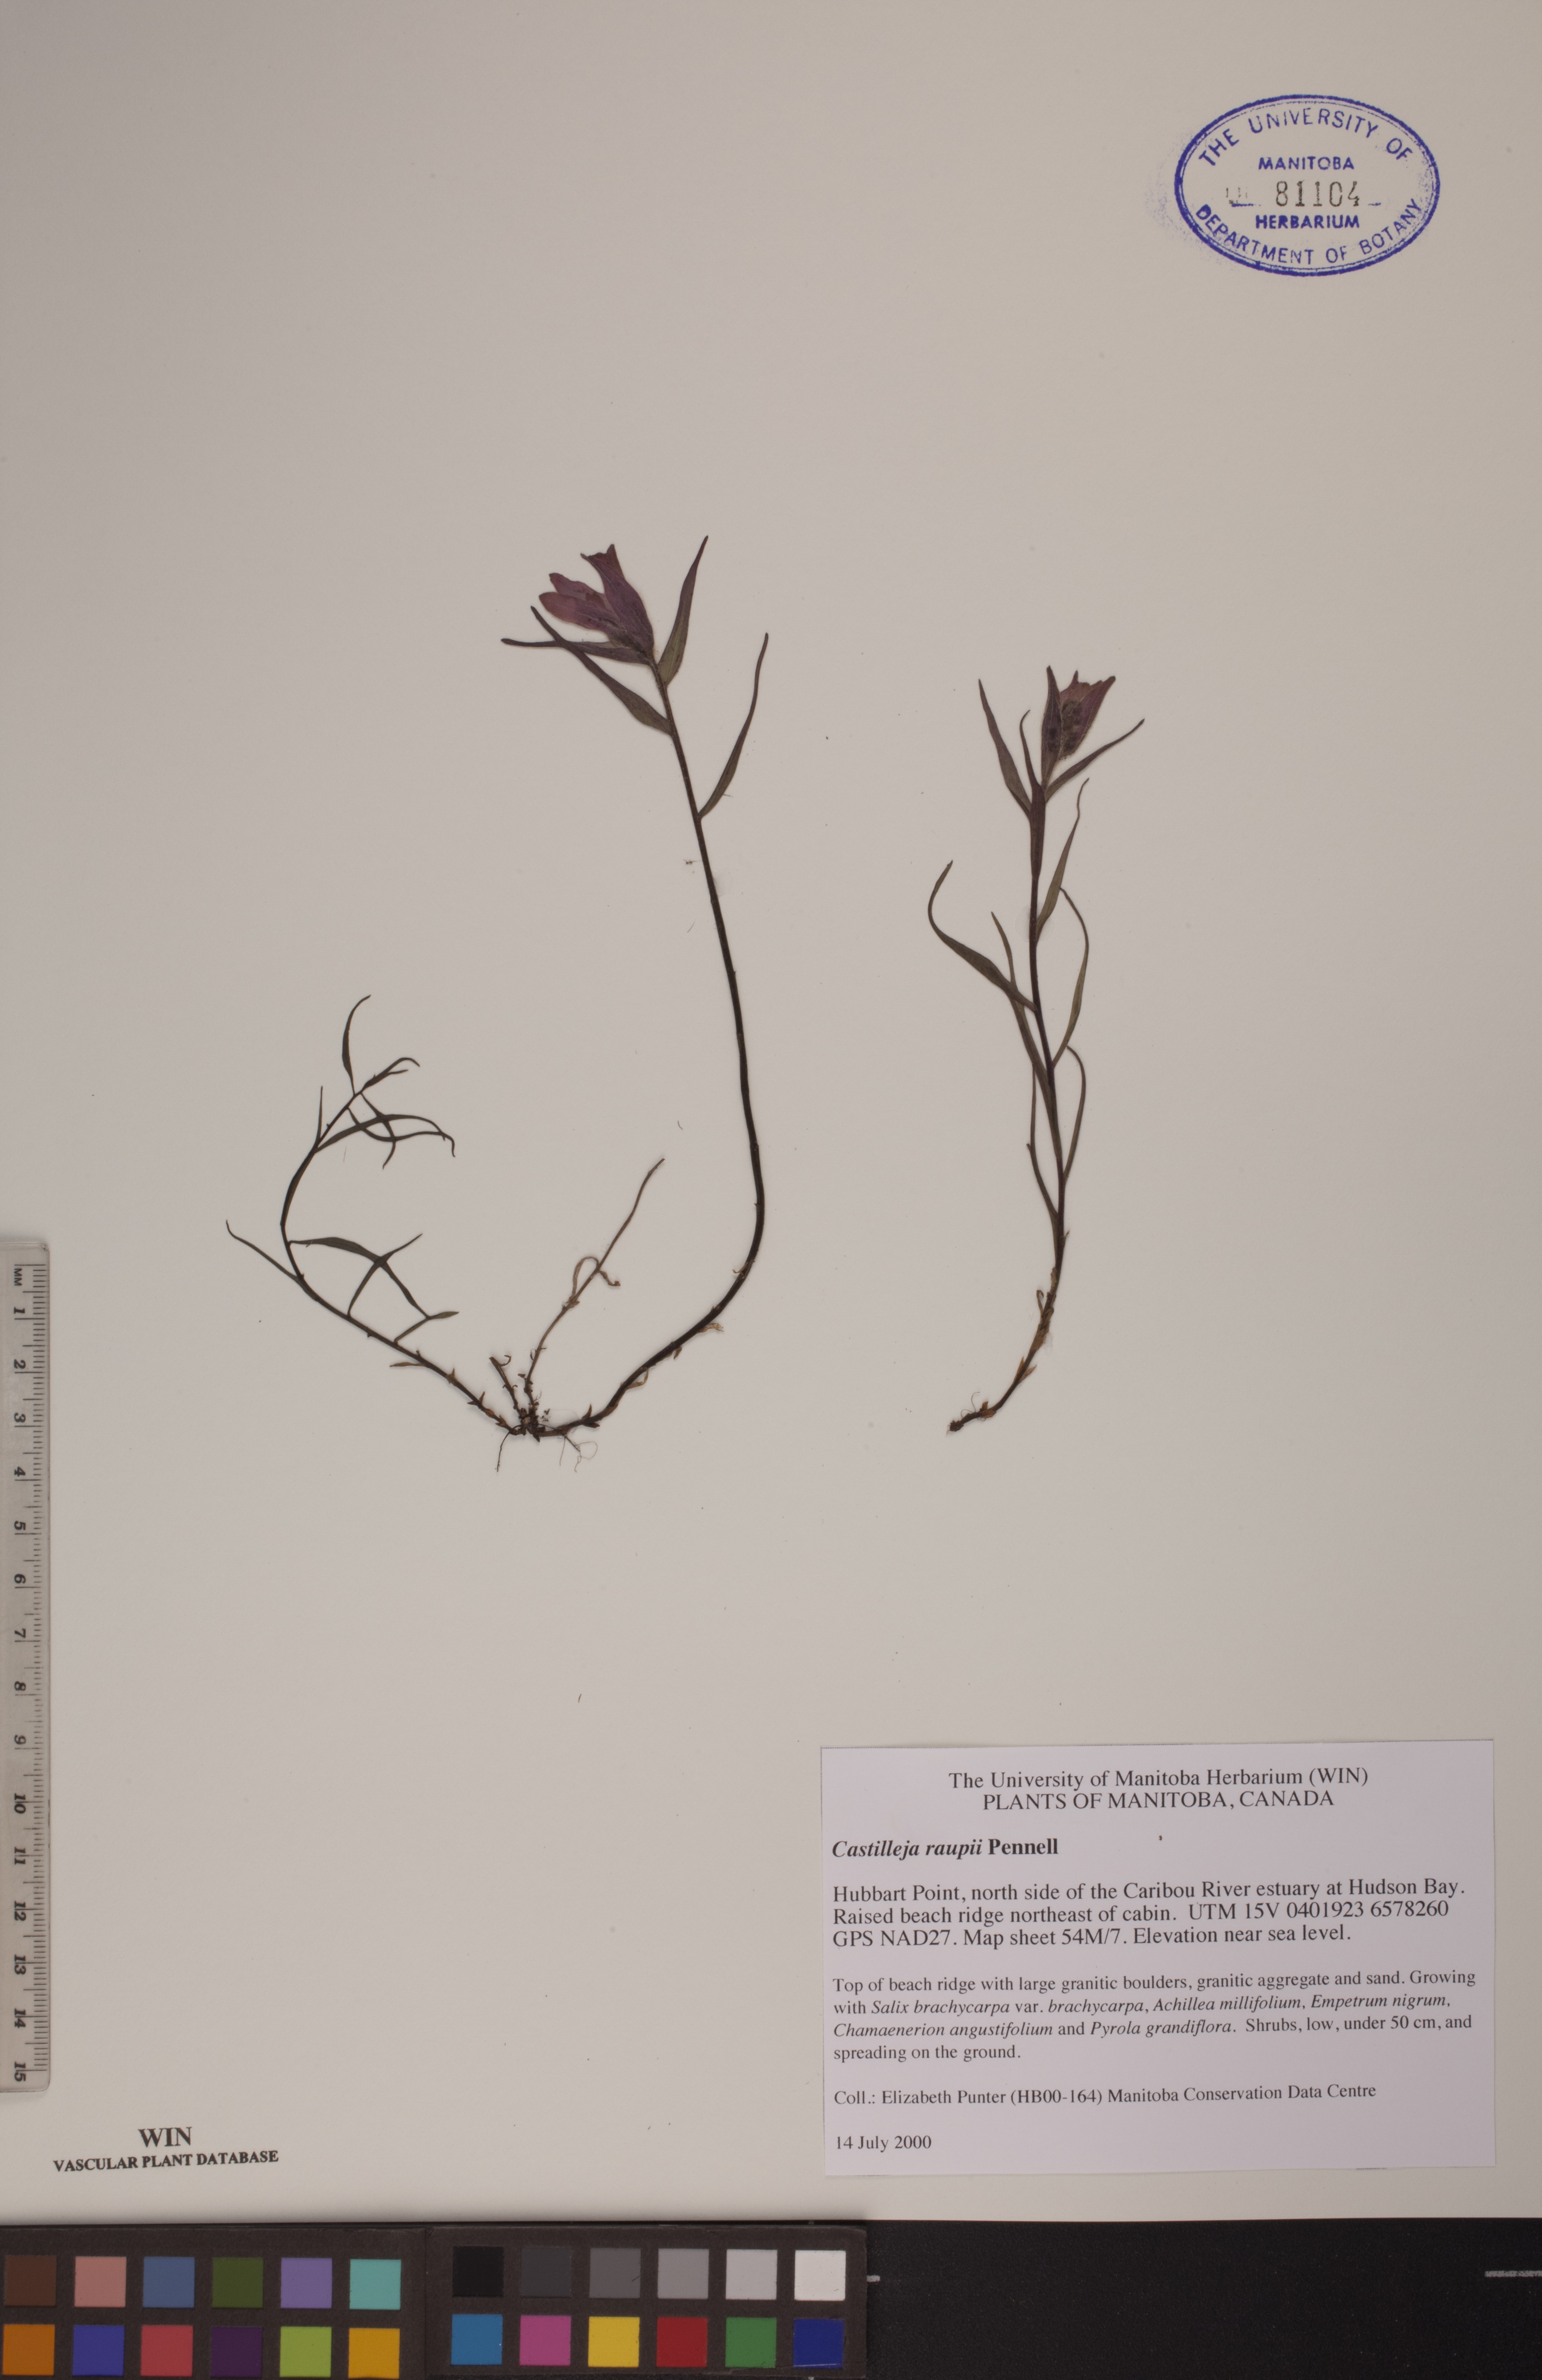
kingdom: Plantae
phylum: Tracheophyta
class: Magnoliopsida
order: Lamiales
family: Orobanchaceae
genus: Castilleja
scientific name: Castilleja raupii
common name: Raup's paintbrush
